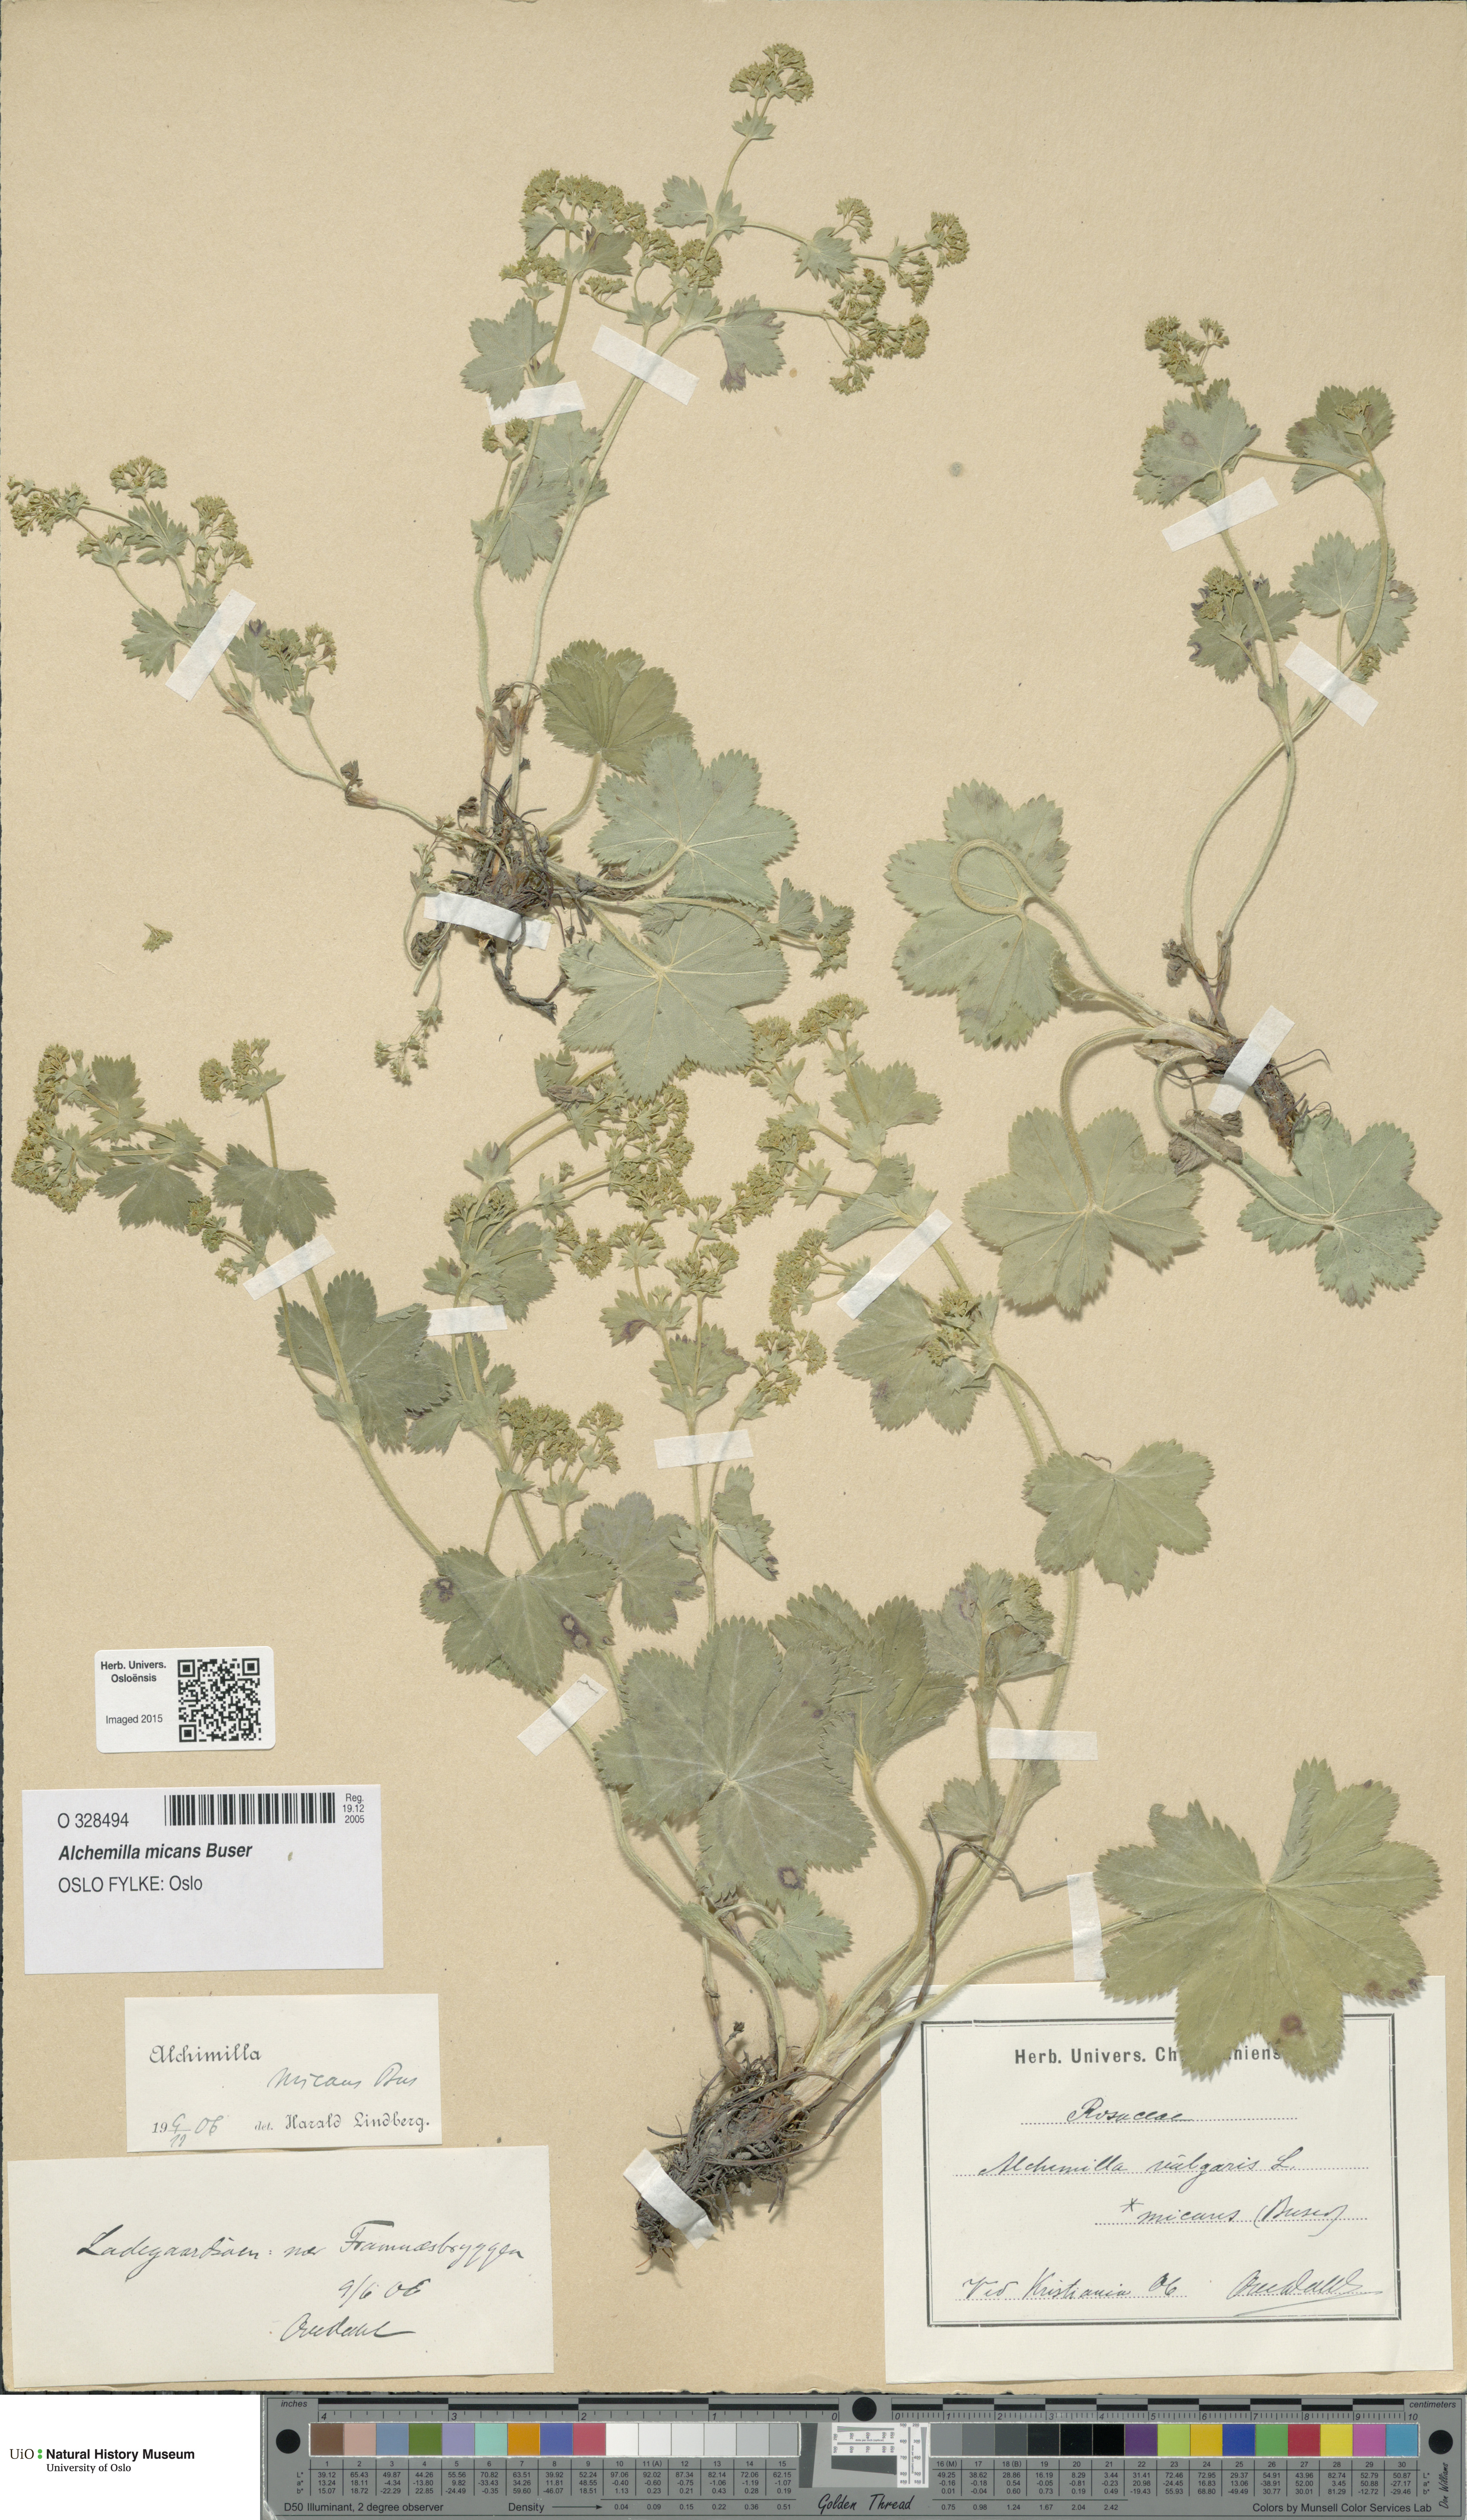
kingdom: Plantae
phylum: Tracheophyta
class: Magnoliopsida
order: Rosales
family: Rosaceae
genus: Alchemilla
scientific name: Alchemilla micans
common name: Gleaming lady's mantle
